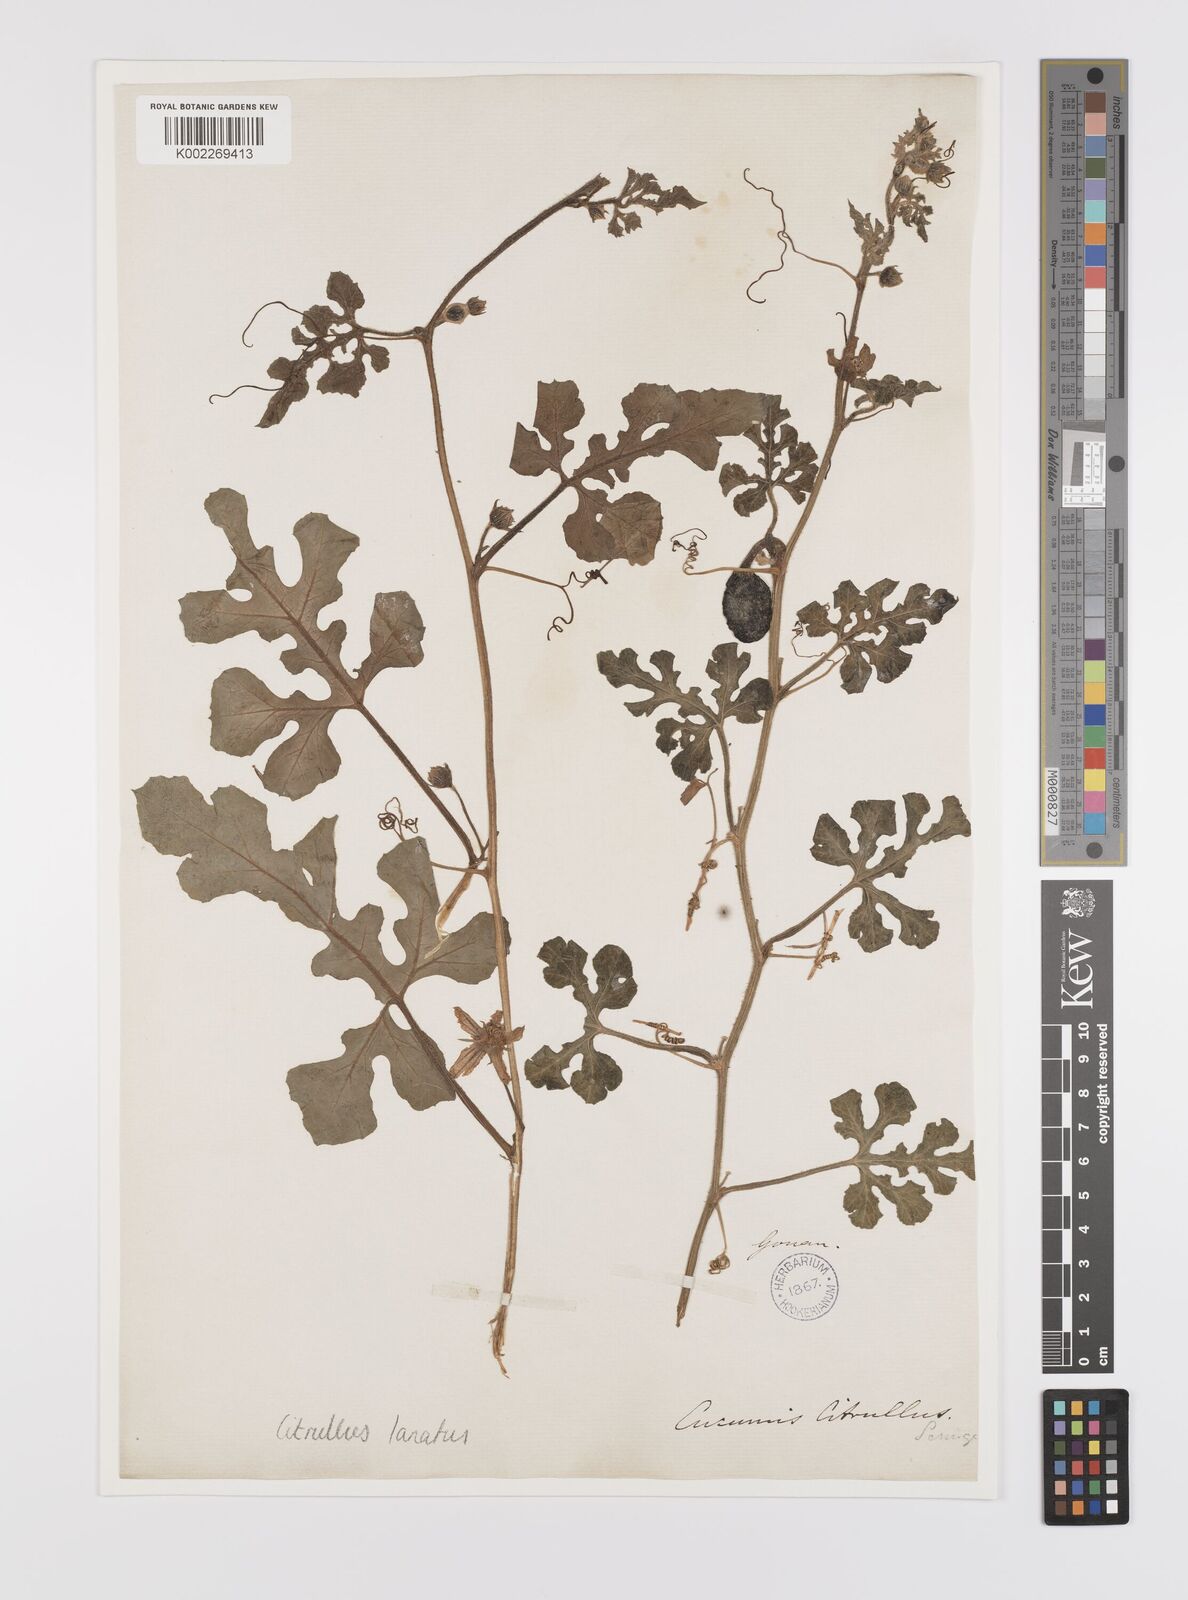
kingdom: Plantae
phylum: Tracheophyta
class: Magnoliopsida
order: Cucurbitales
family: Cucurbitaceae
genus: Citrullus
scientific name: Citrullus lanatus
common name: Watermelon
